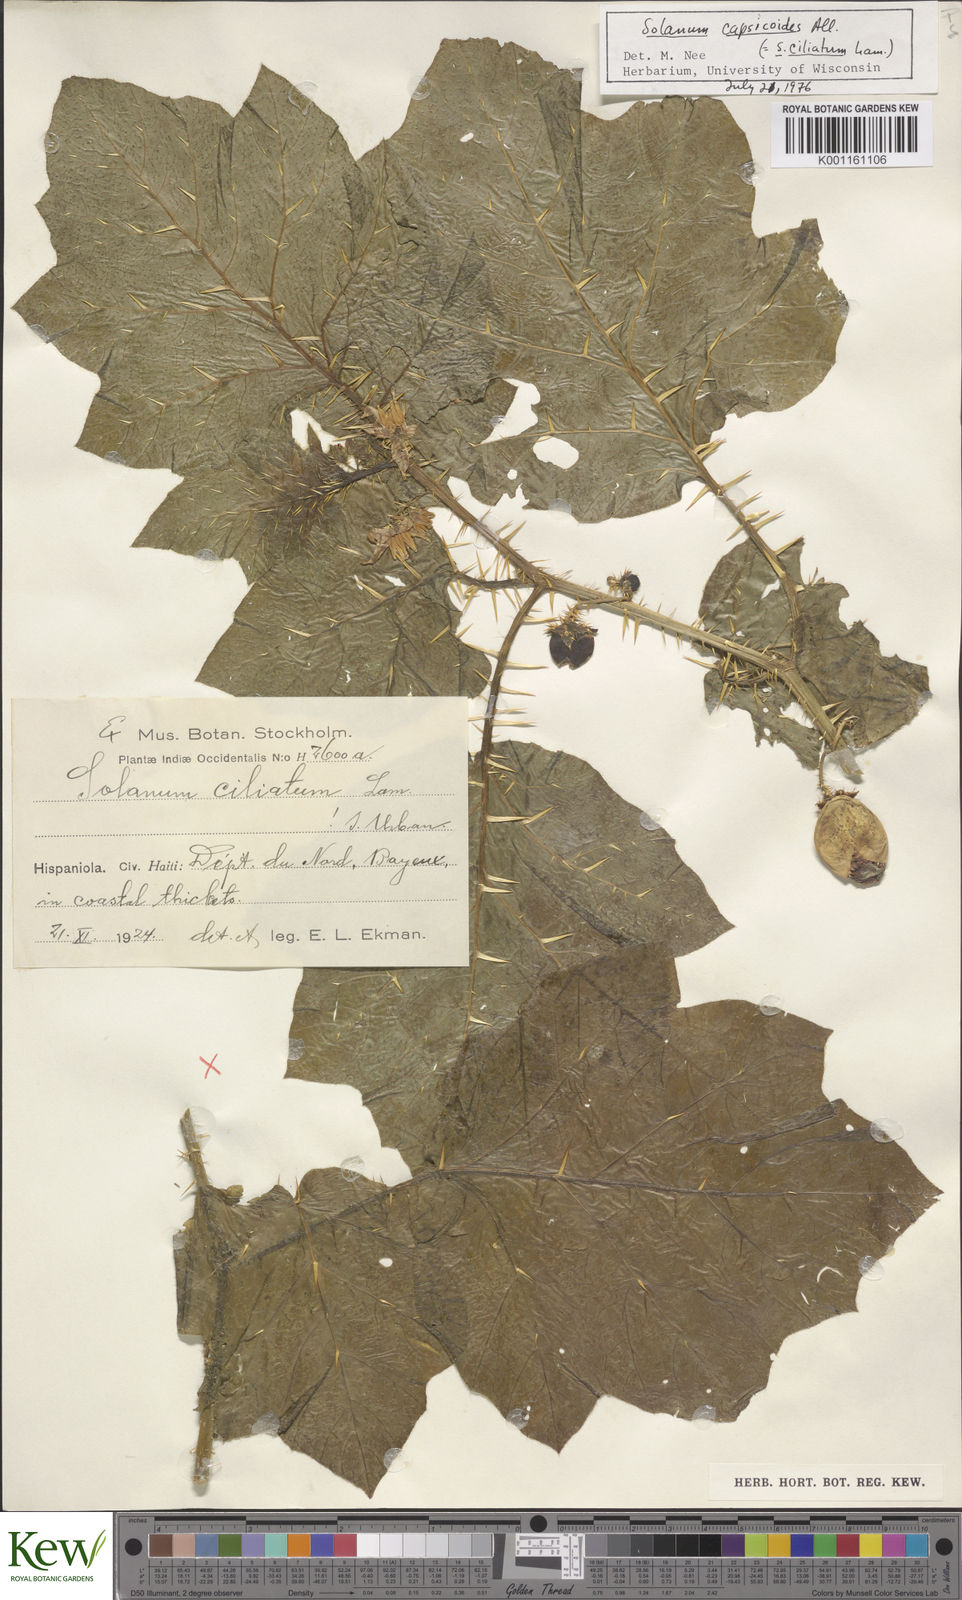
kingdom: Plantae
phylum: Tracheophyta
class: Magnoliopsida
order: Solanales
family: Solanaceae
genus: Solanum
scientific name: Solanum aculeatissimum
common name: Dutch eggplant
